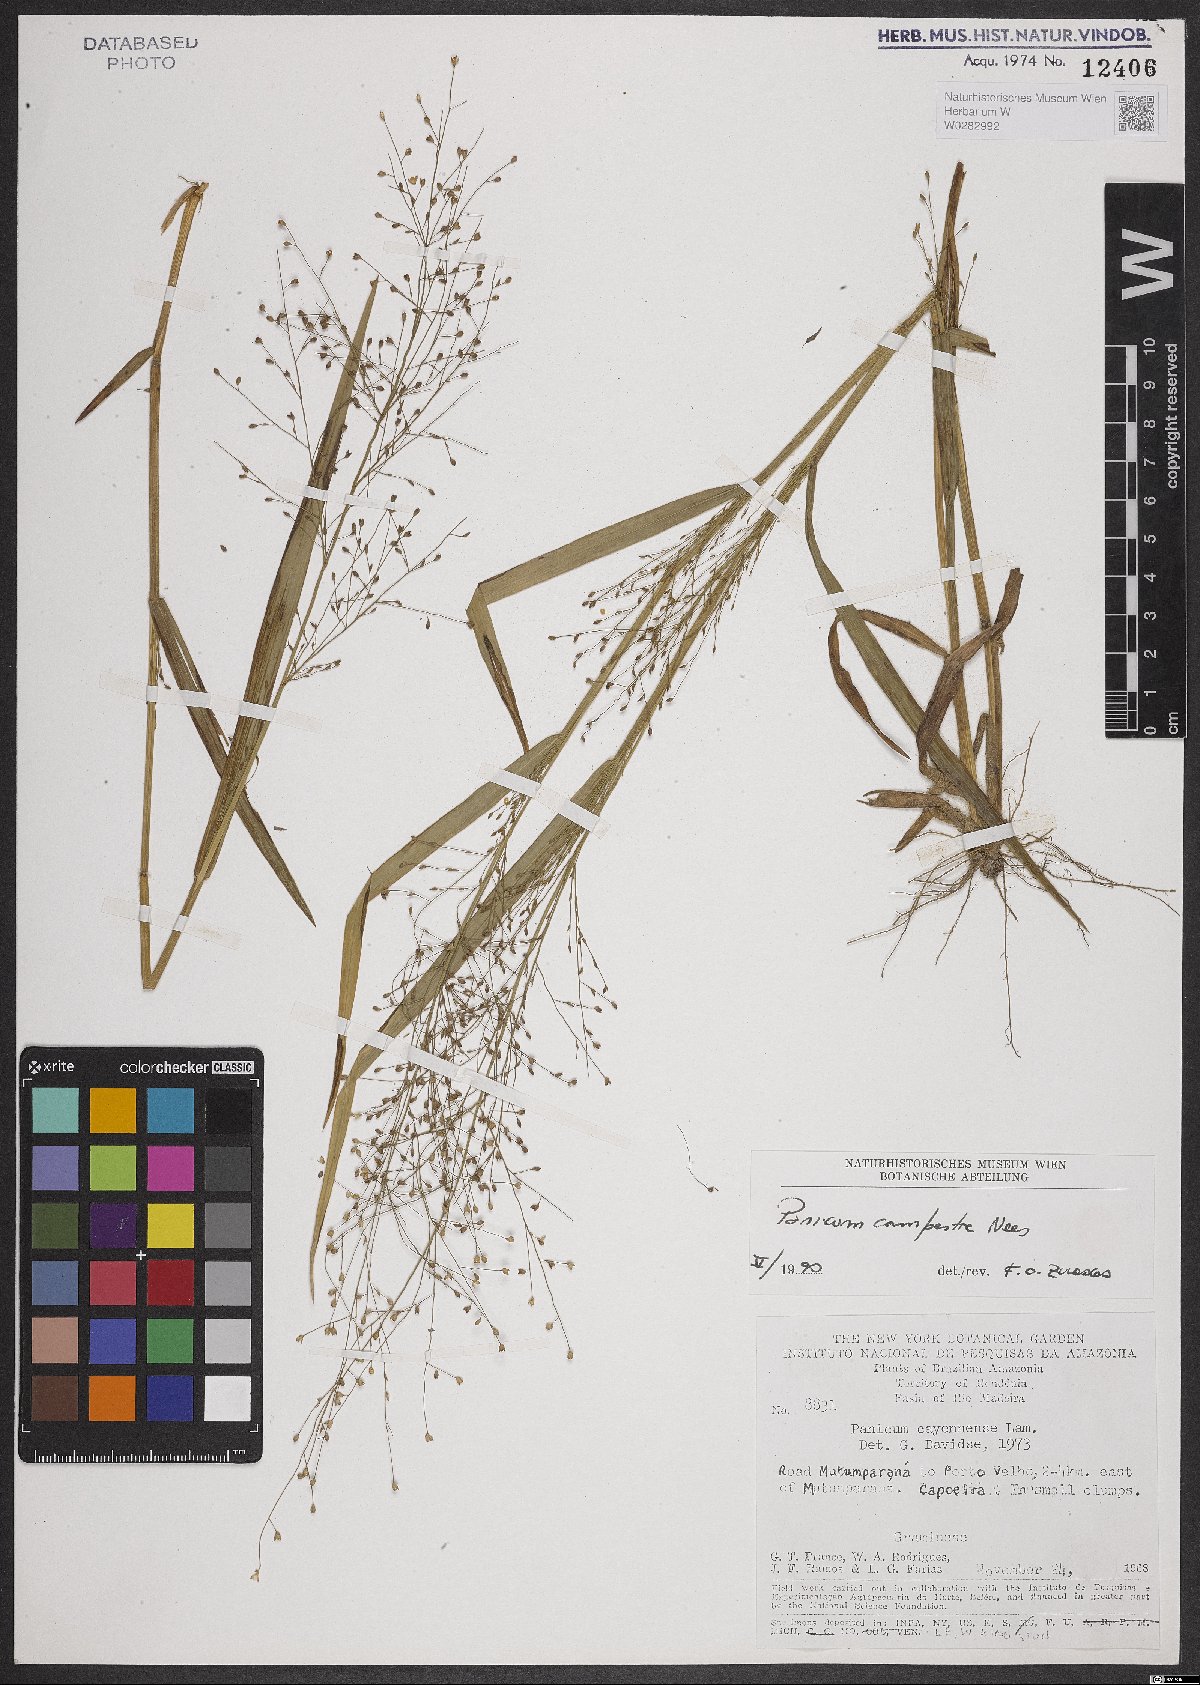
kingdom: Plantae
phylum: Tracheophyta
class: Liliopsida
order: Poales
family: Poaceae
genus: Panicum
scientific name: Panicum peladoense
